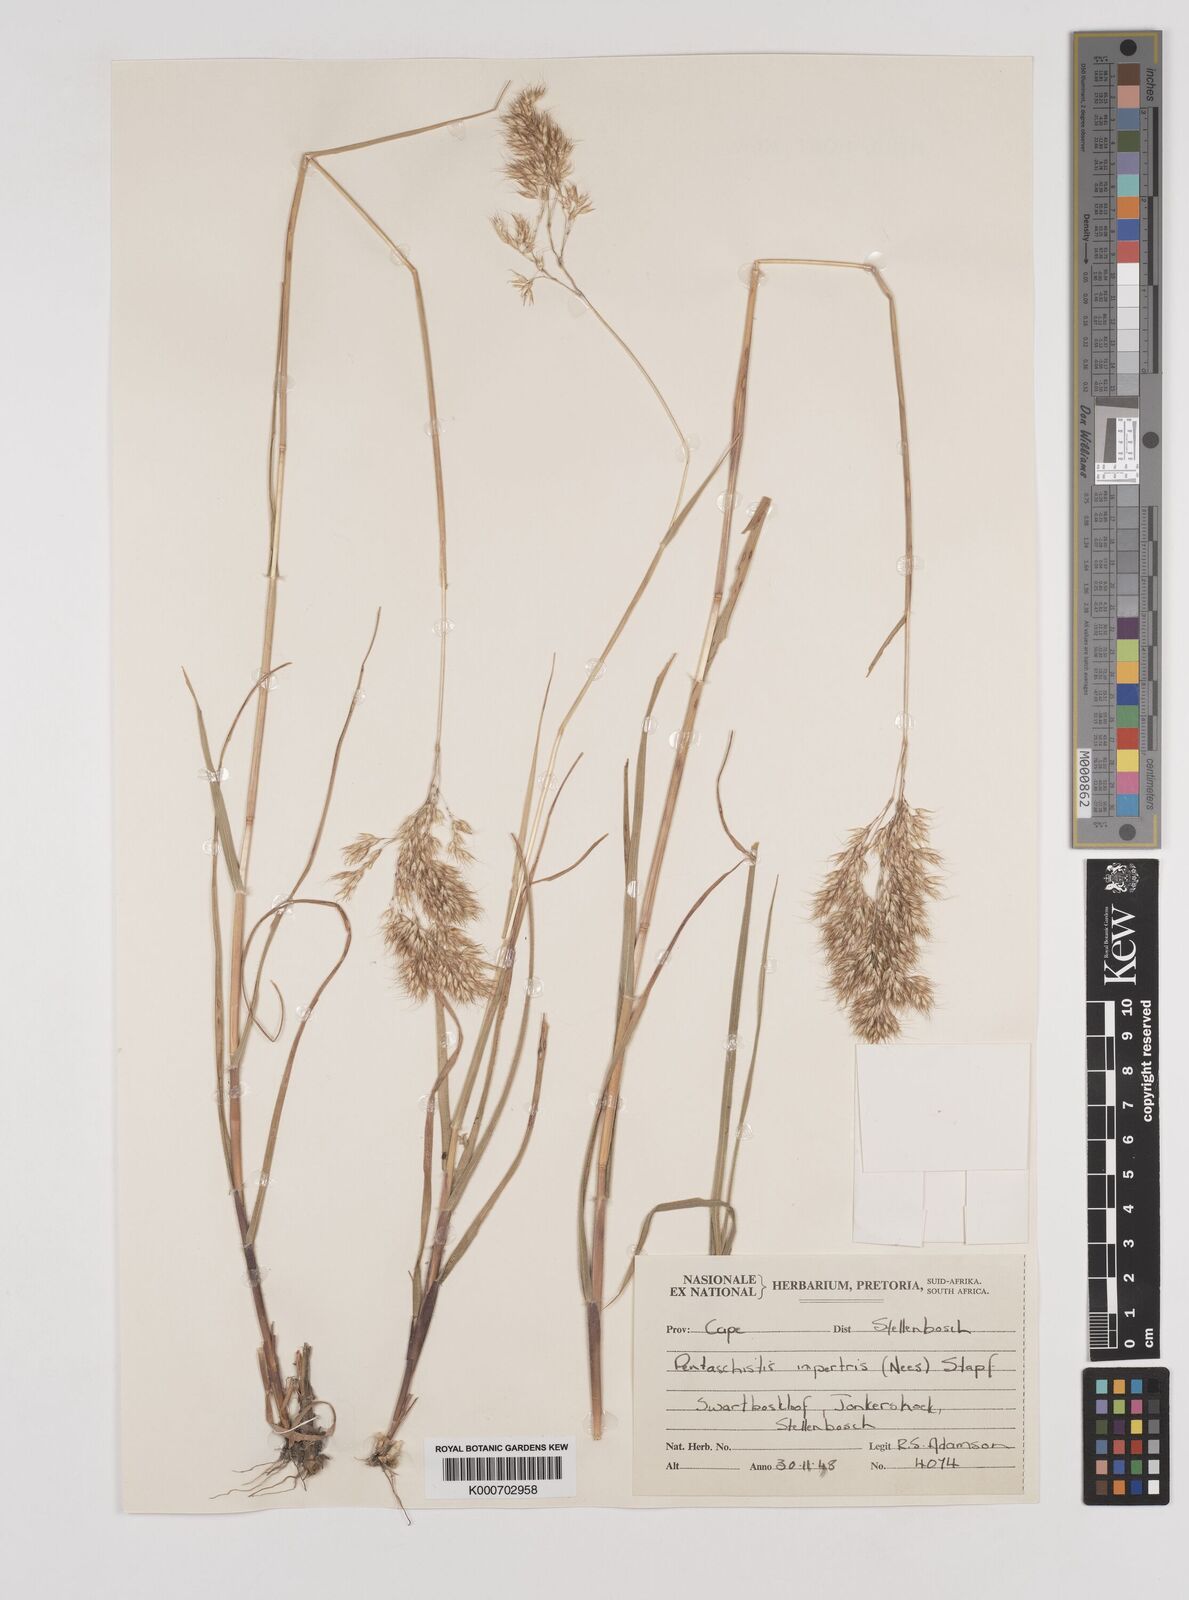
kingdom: Plantae
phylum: Tracheophyta
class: Liliopsida
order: Poales
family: Poaceae
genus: Pentameris
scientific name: Pentameris rupestris
